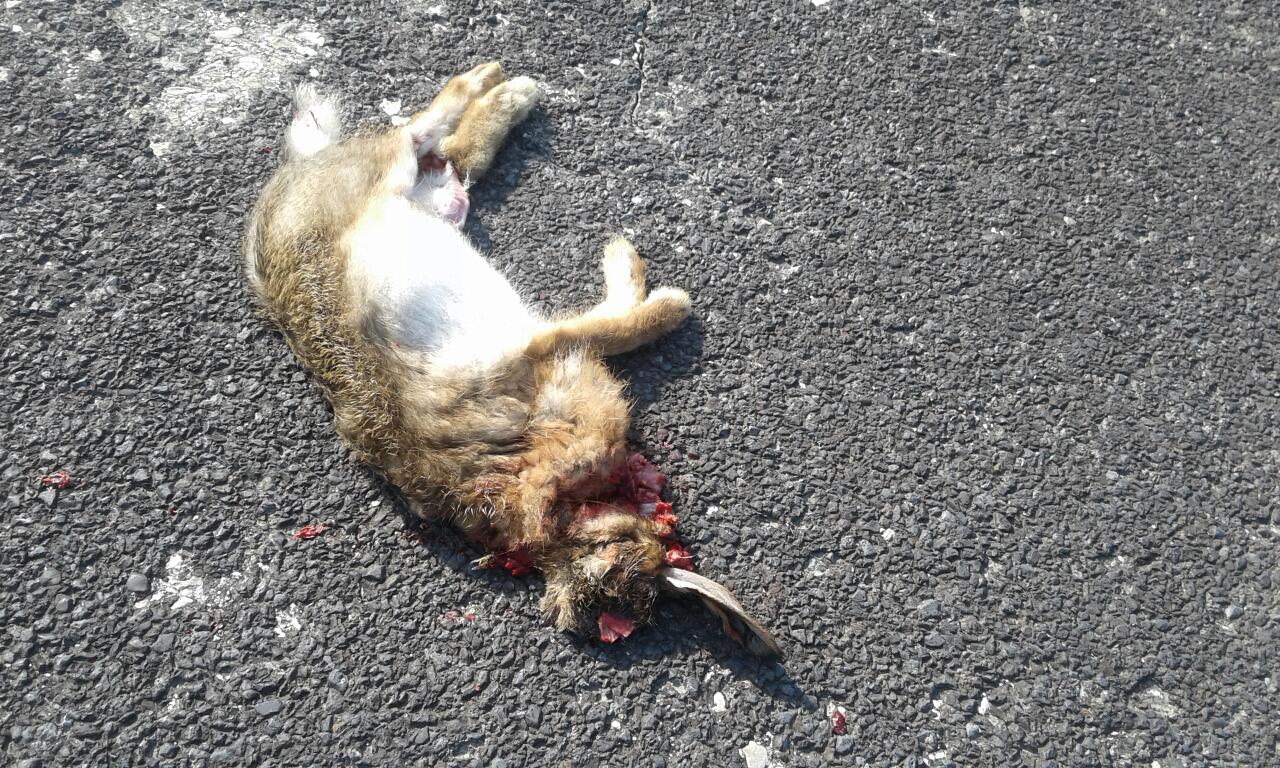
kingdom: Animalia
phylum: Chordata
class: Mammalia
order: Lagomorpha
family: Leporidae
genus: Lepus
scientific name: Lepus europaeus
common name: European hare
